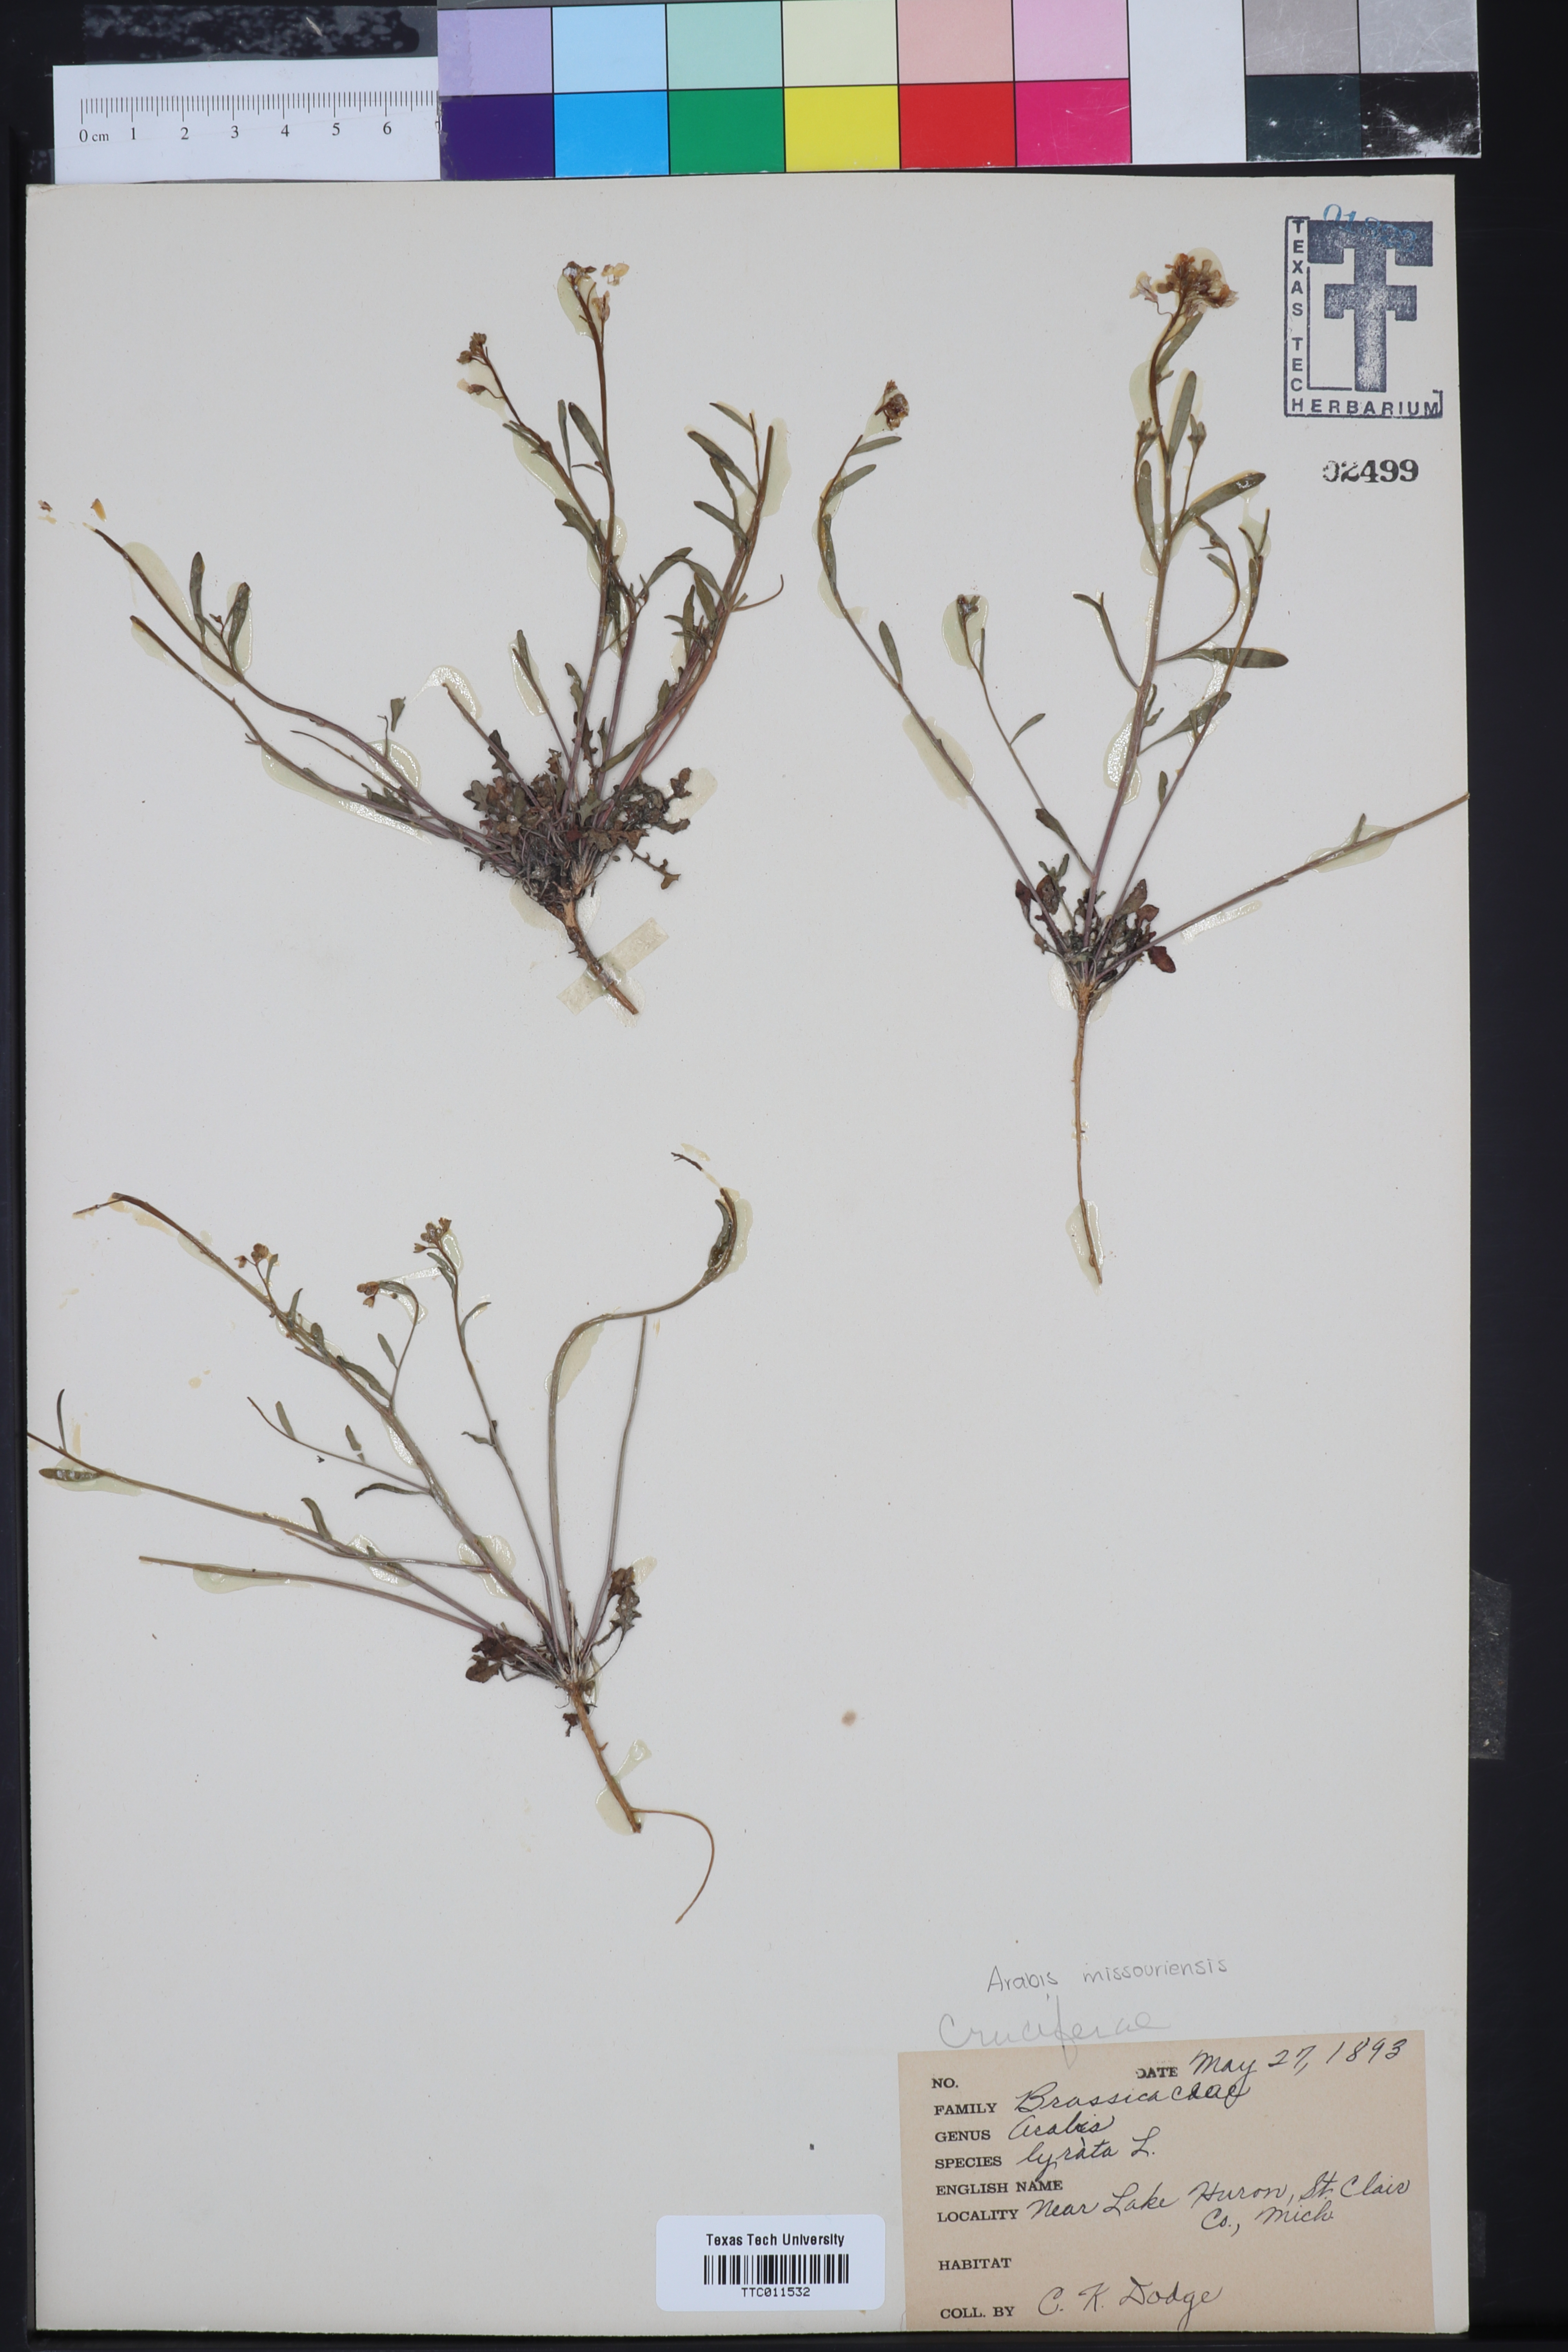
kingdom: Plantae
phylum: Tracheophyta
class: Magnoliopsida
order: Brassicales
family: Brassicaceae
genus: Arabidopsis
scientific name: Arabidopsis lyrata
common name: Lyrate rockcress
